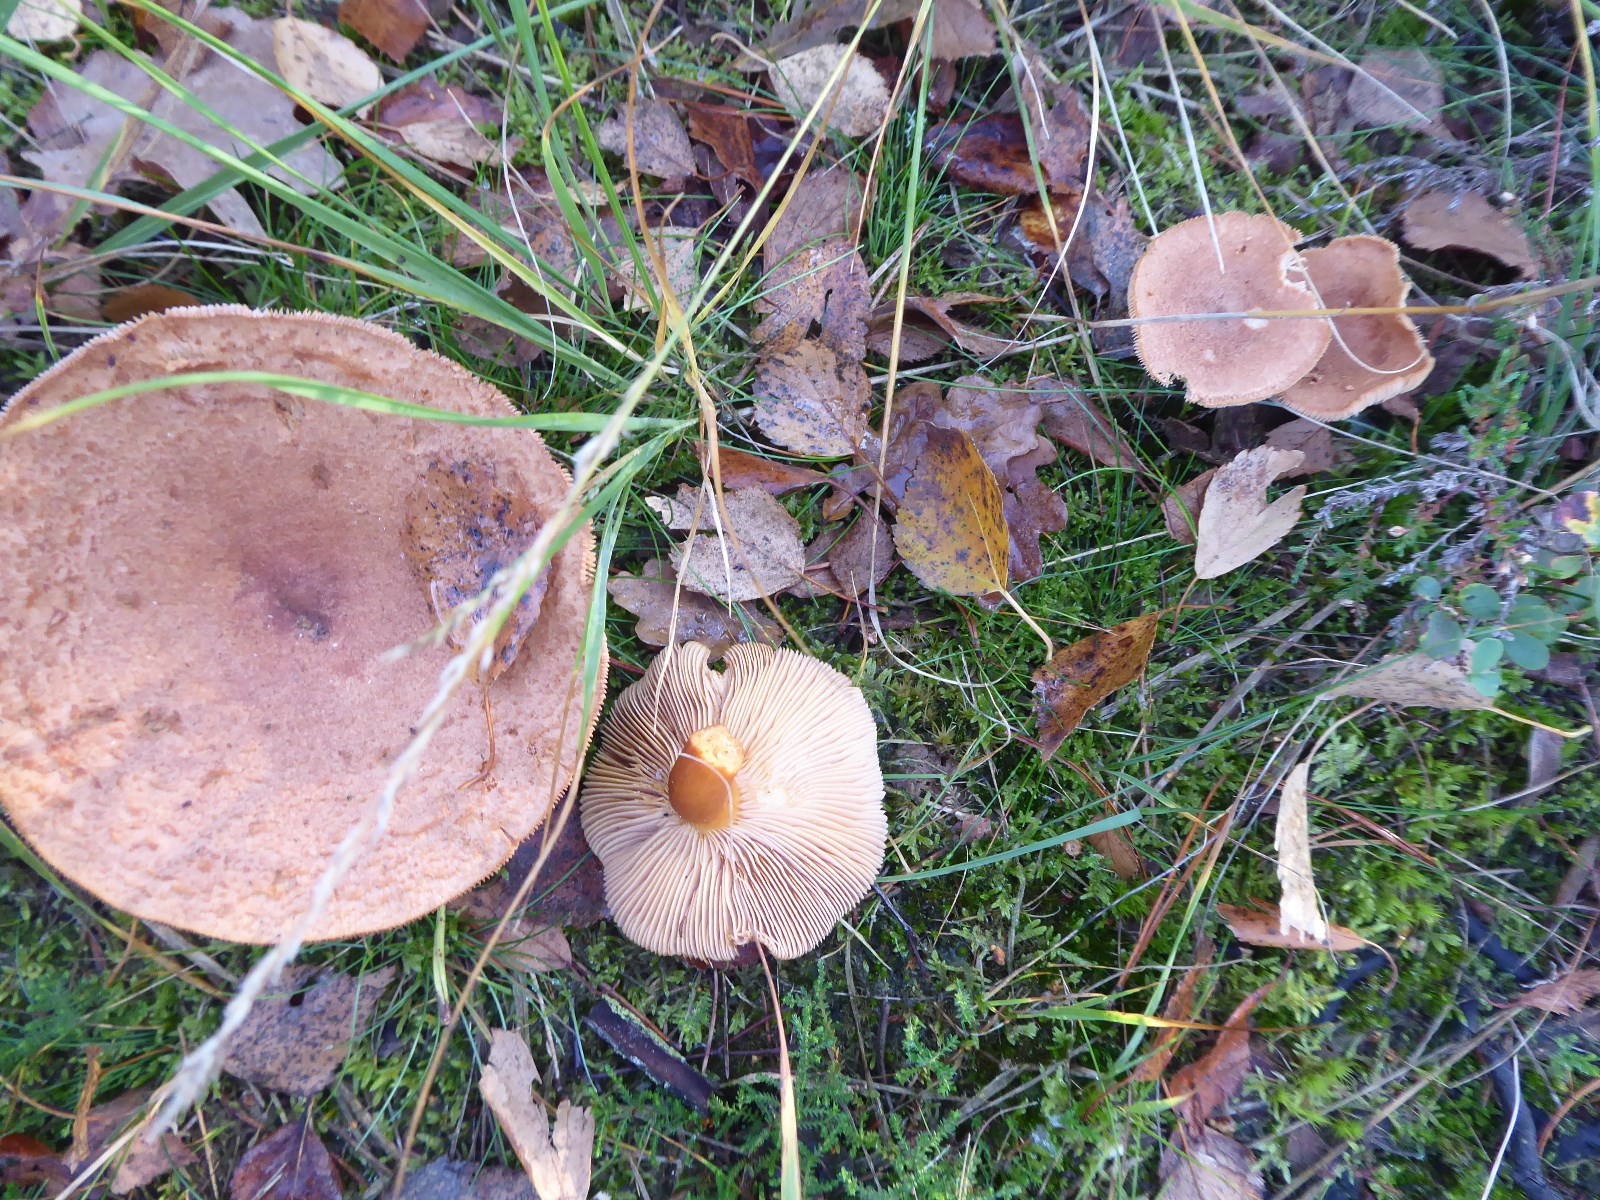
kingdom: Fungi
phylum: Basidiomycota
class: Agaricomycetes
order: Russulales
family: Russulaceae
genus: Lactarius
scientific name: Lactarius helvus
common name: mose-mælkehat
